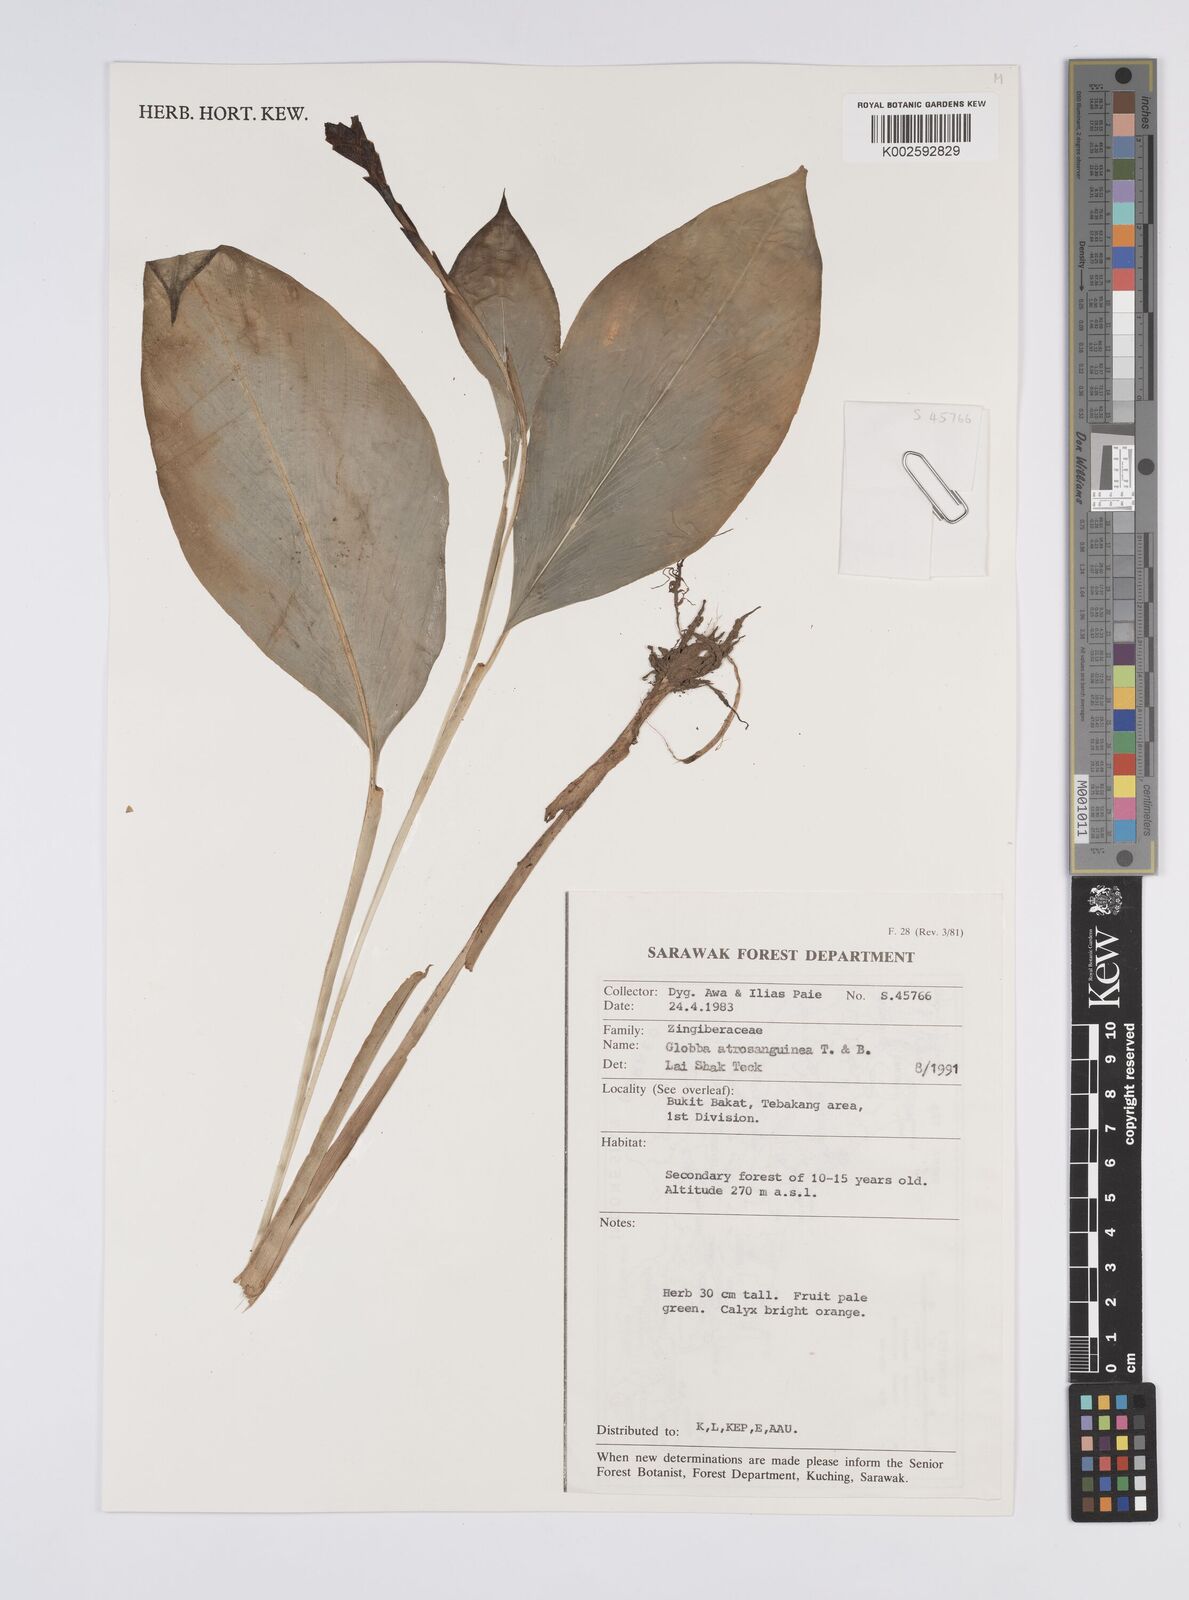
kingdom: Plantae
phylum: Tracheophyta
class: Liliopsida
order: Zingiberales
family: Zingiberaceae
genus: Globba
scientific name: Globba atrosanguinea
